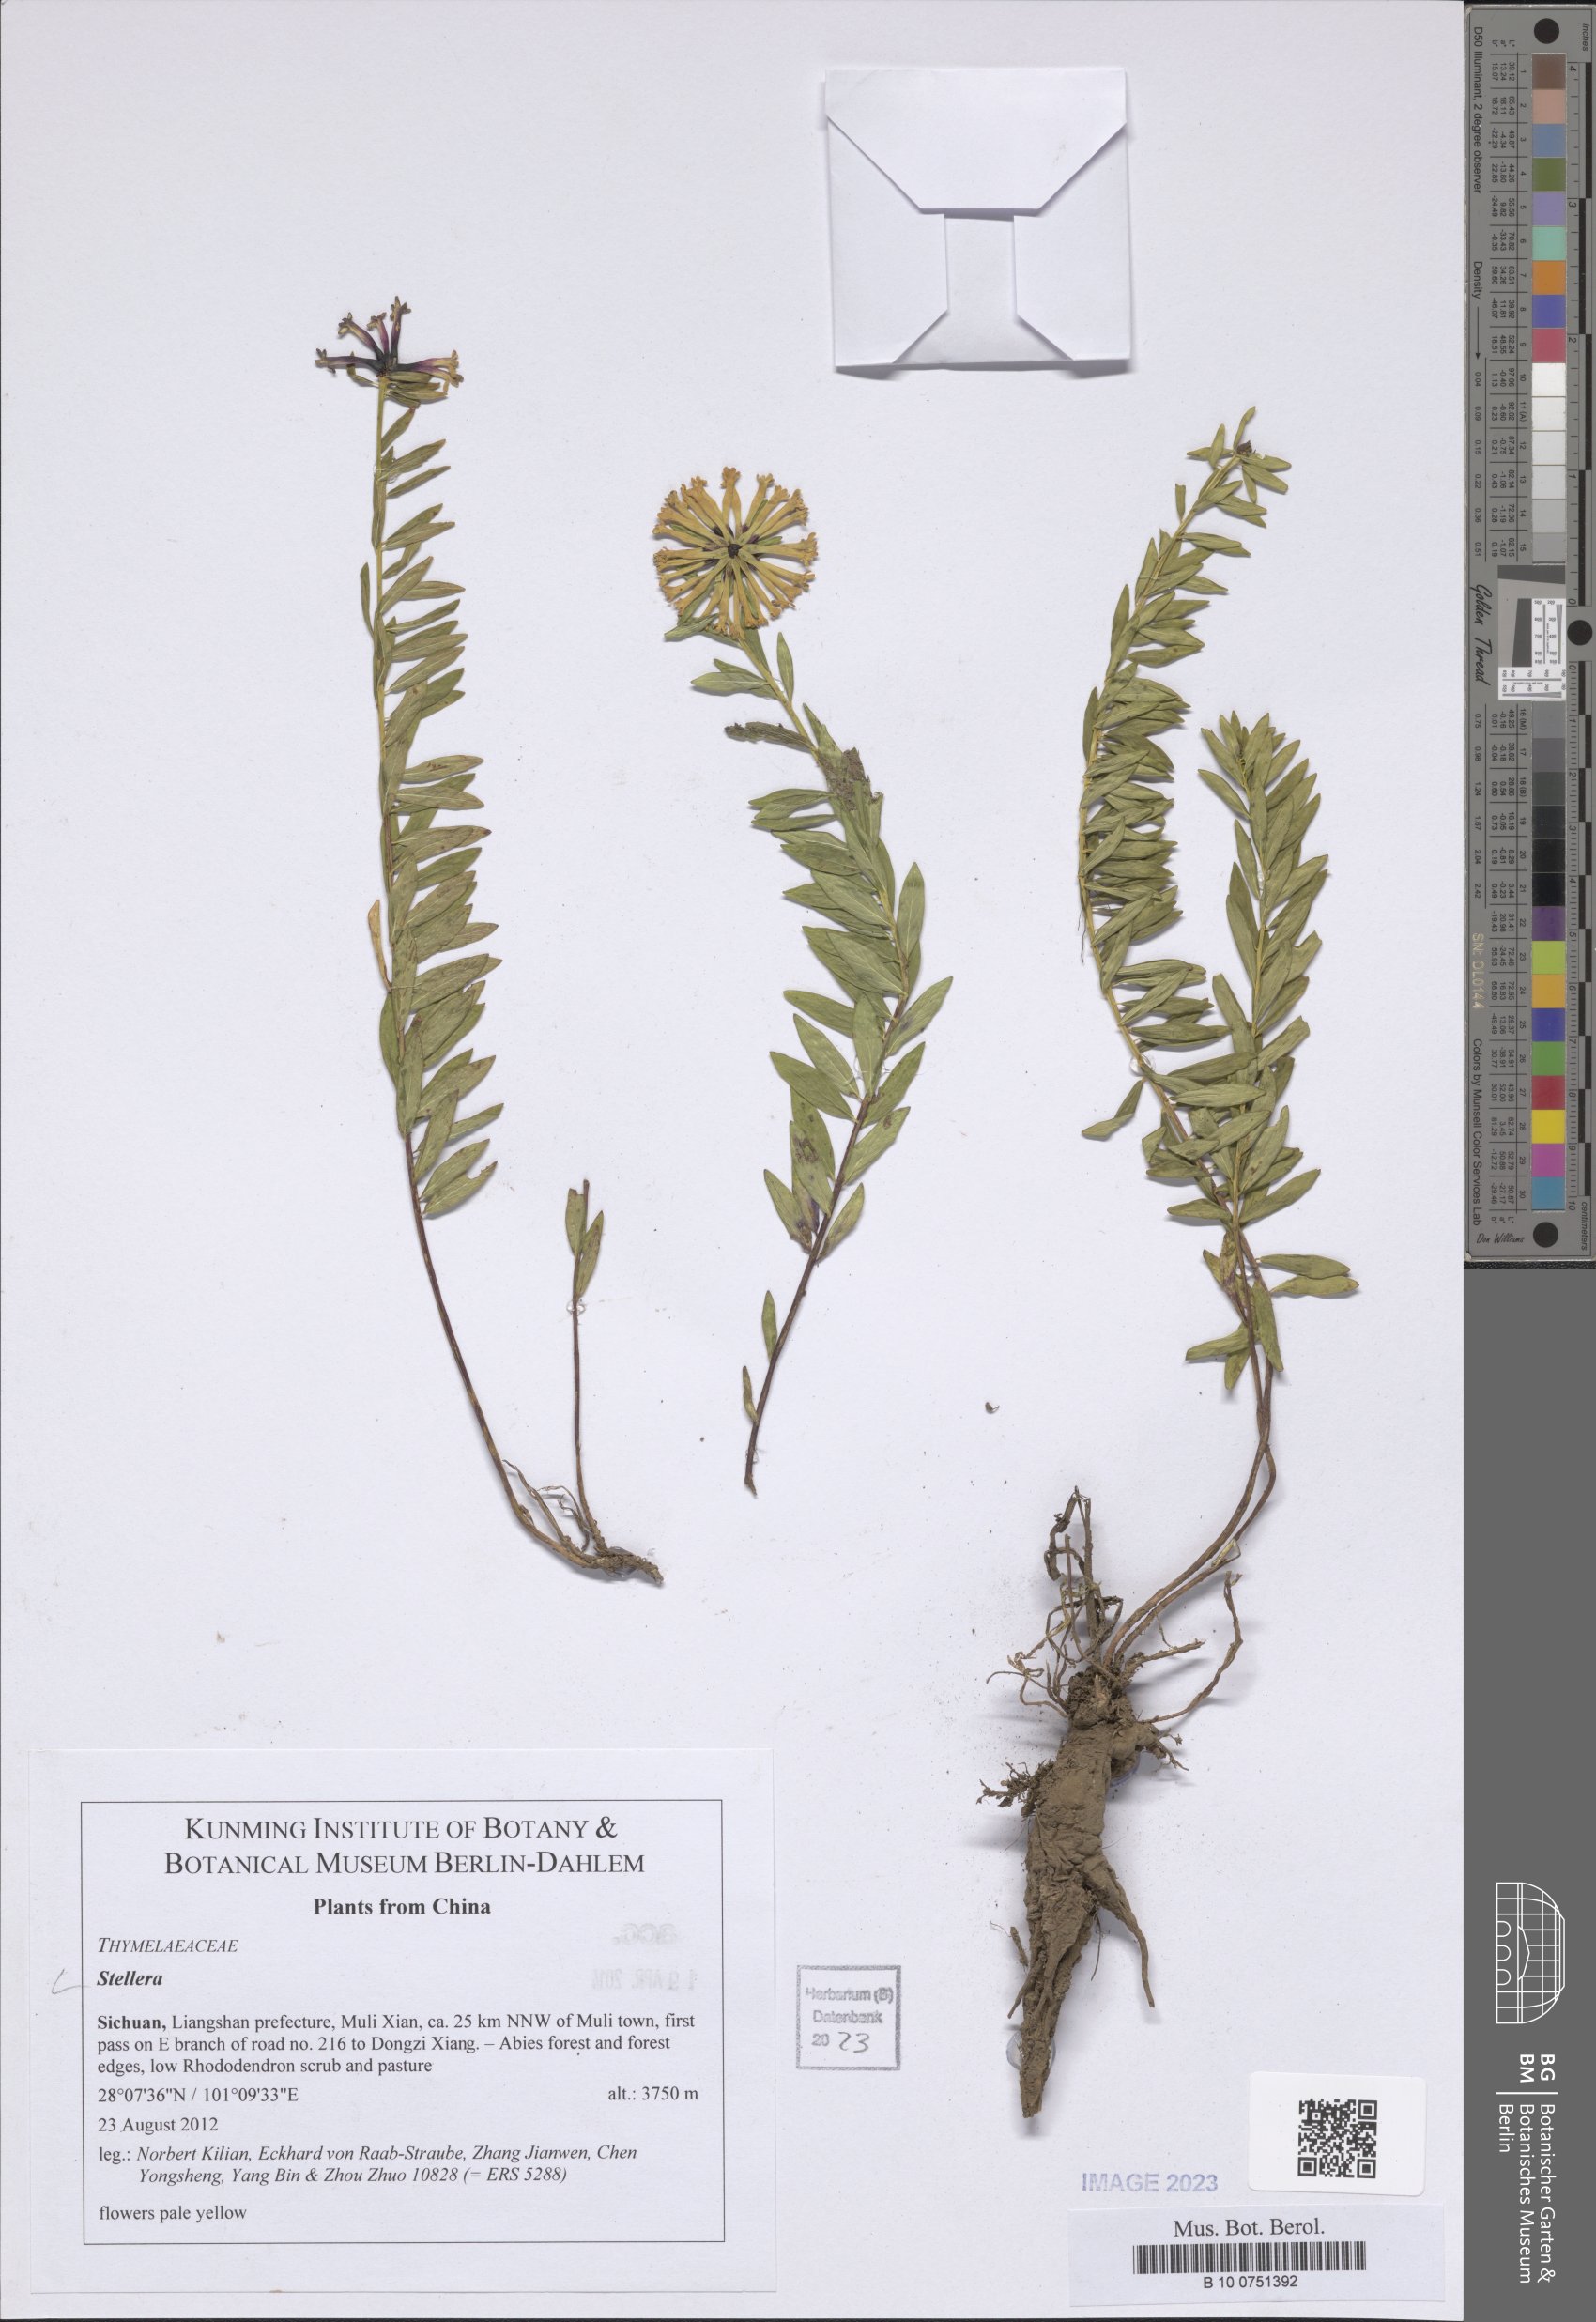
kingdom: Plantae
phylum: Tracheophyta
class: Magnoliopsida
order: Malvales
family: Thymelaeaceae
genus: Stellera
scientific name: Stellera
